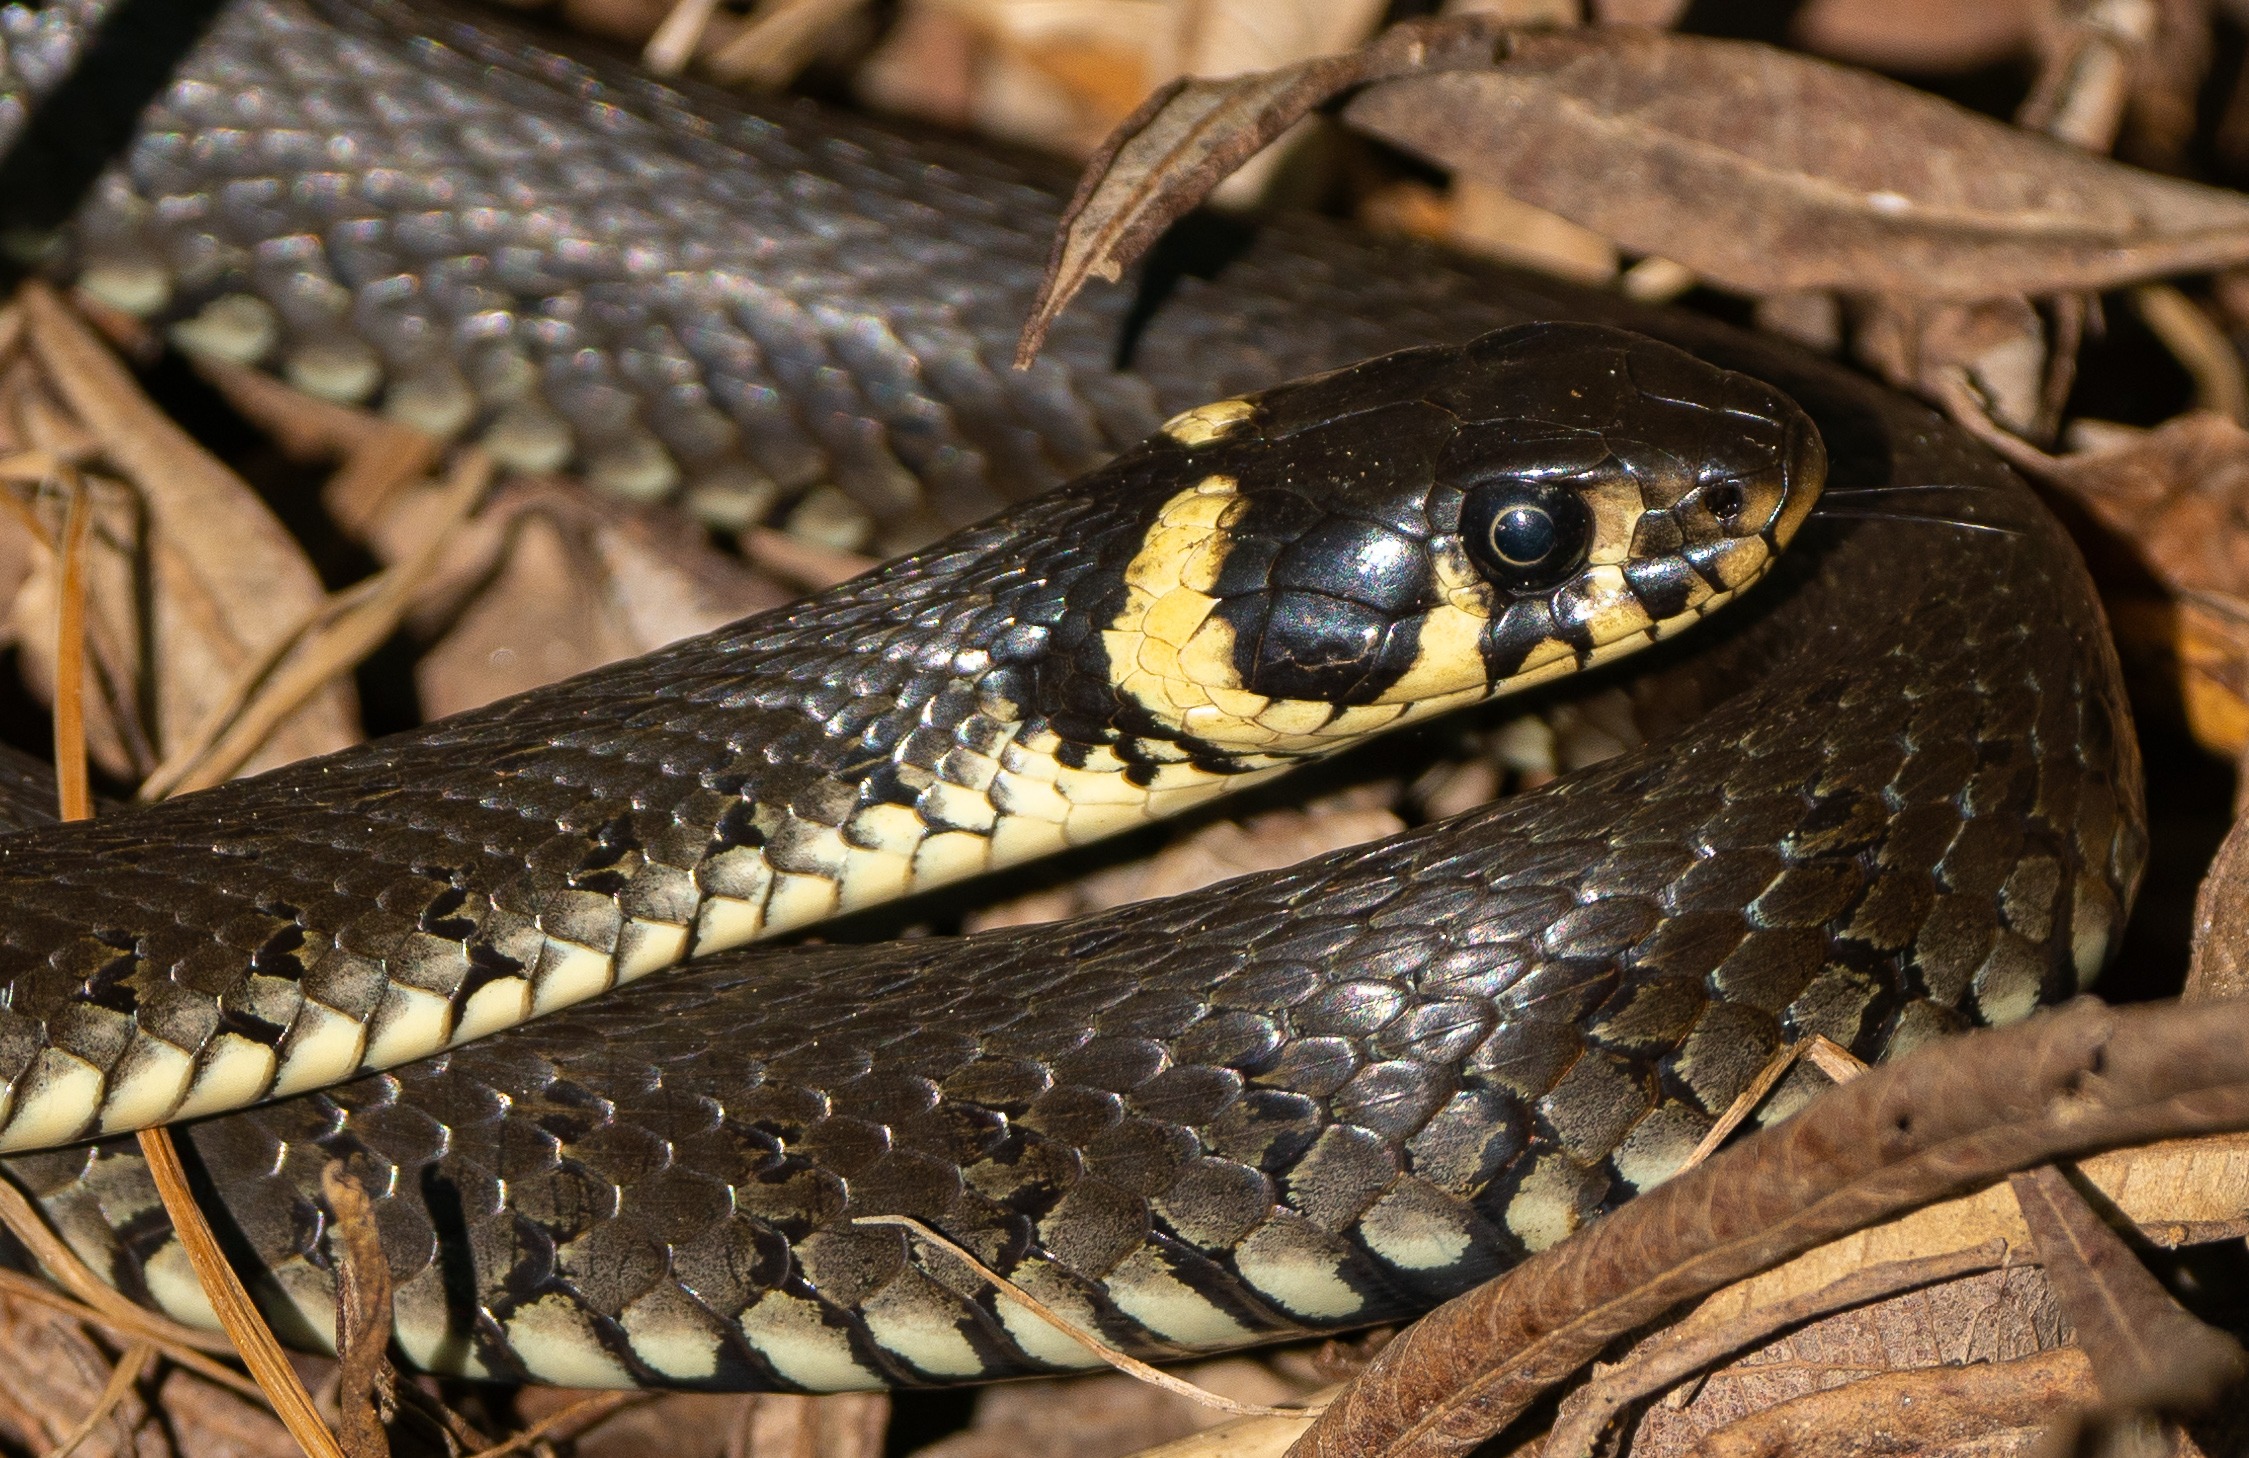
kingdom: Animalia
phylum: Chordata
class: Squamata
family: Colubridae
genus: Natrix
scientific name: Natrix natrix
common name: Snog
